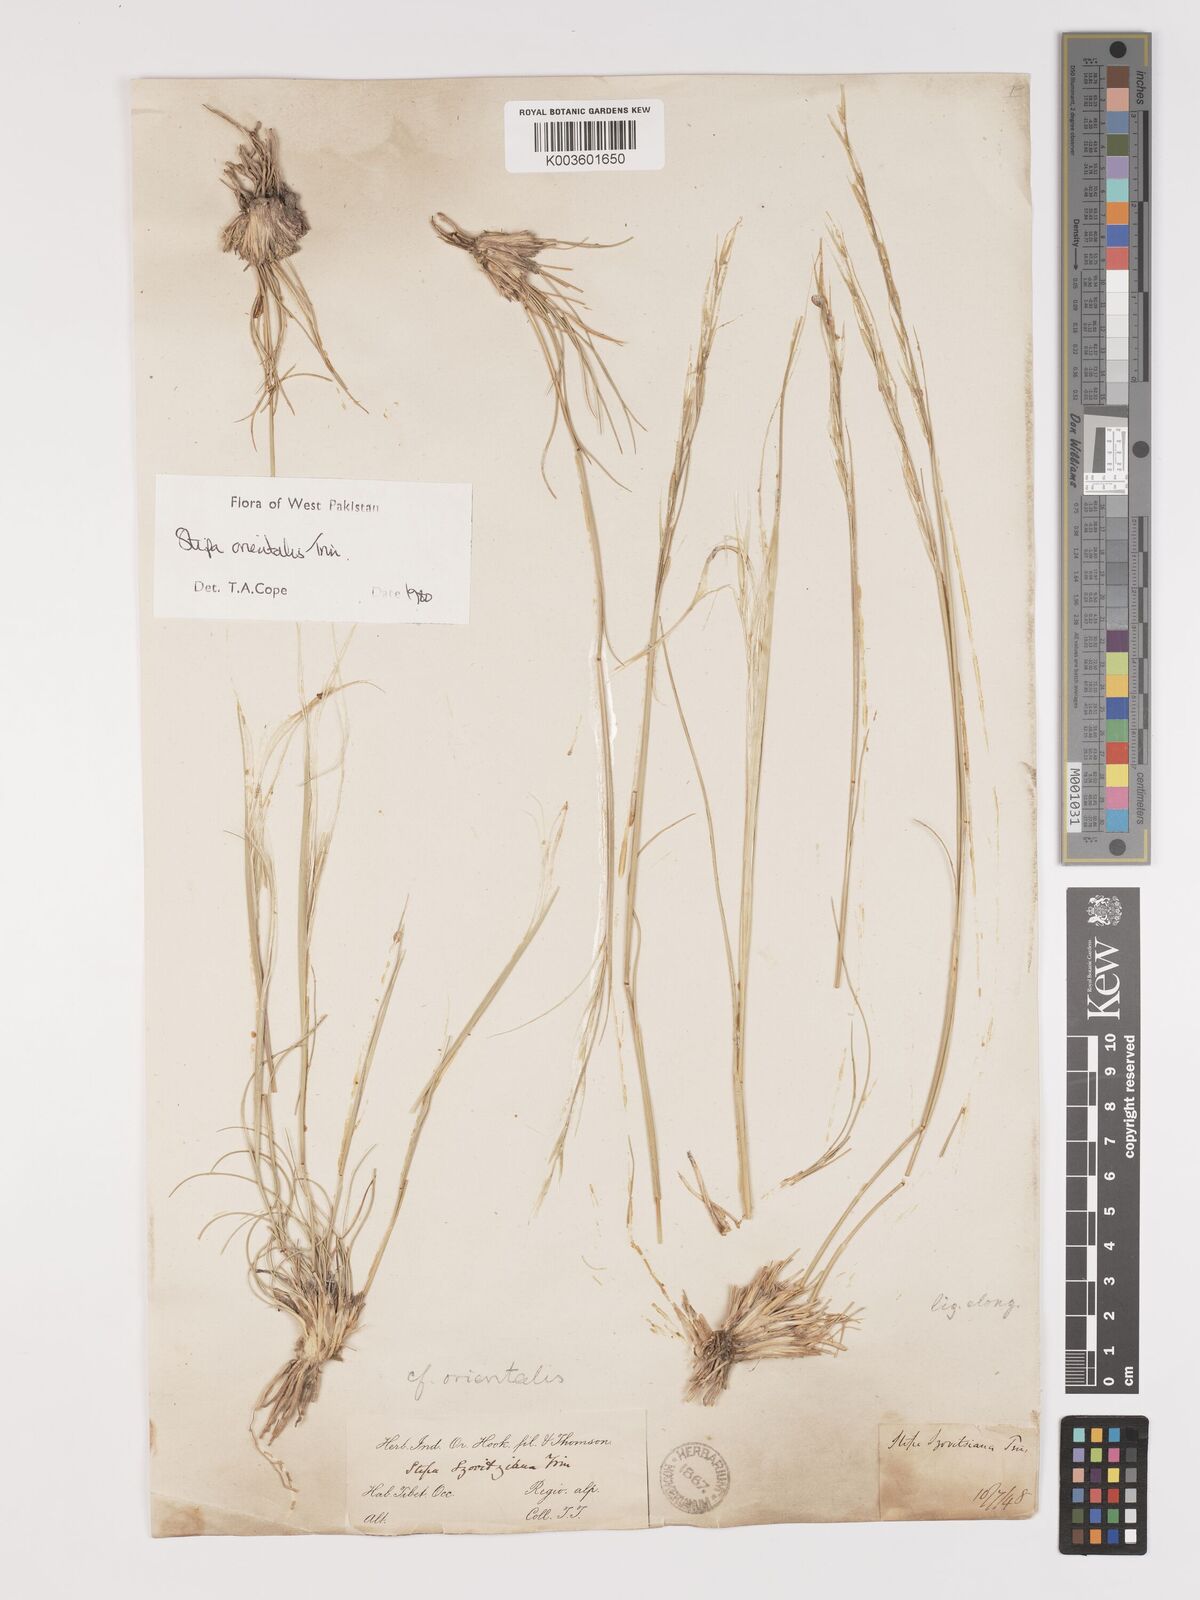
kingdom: Plantae
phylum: Tracheophyta
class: Liliopsida
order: Poales
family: Poaceae
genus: Stipa
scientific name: Stipa orientalis
